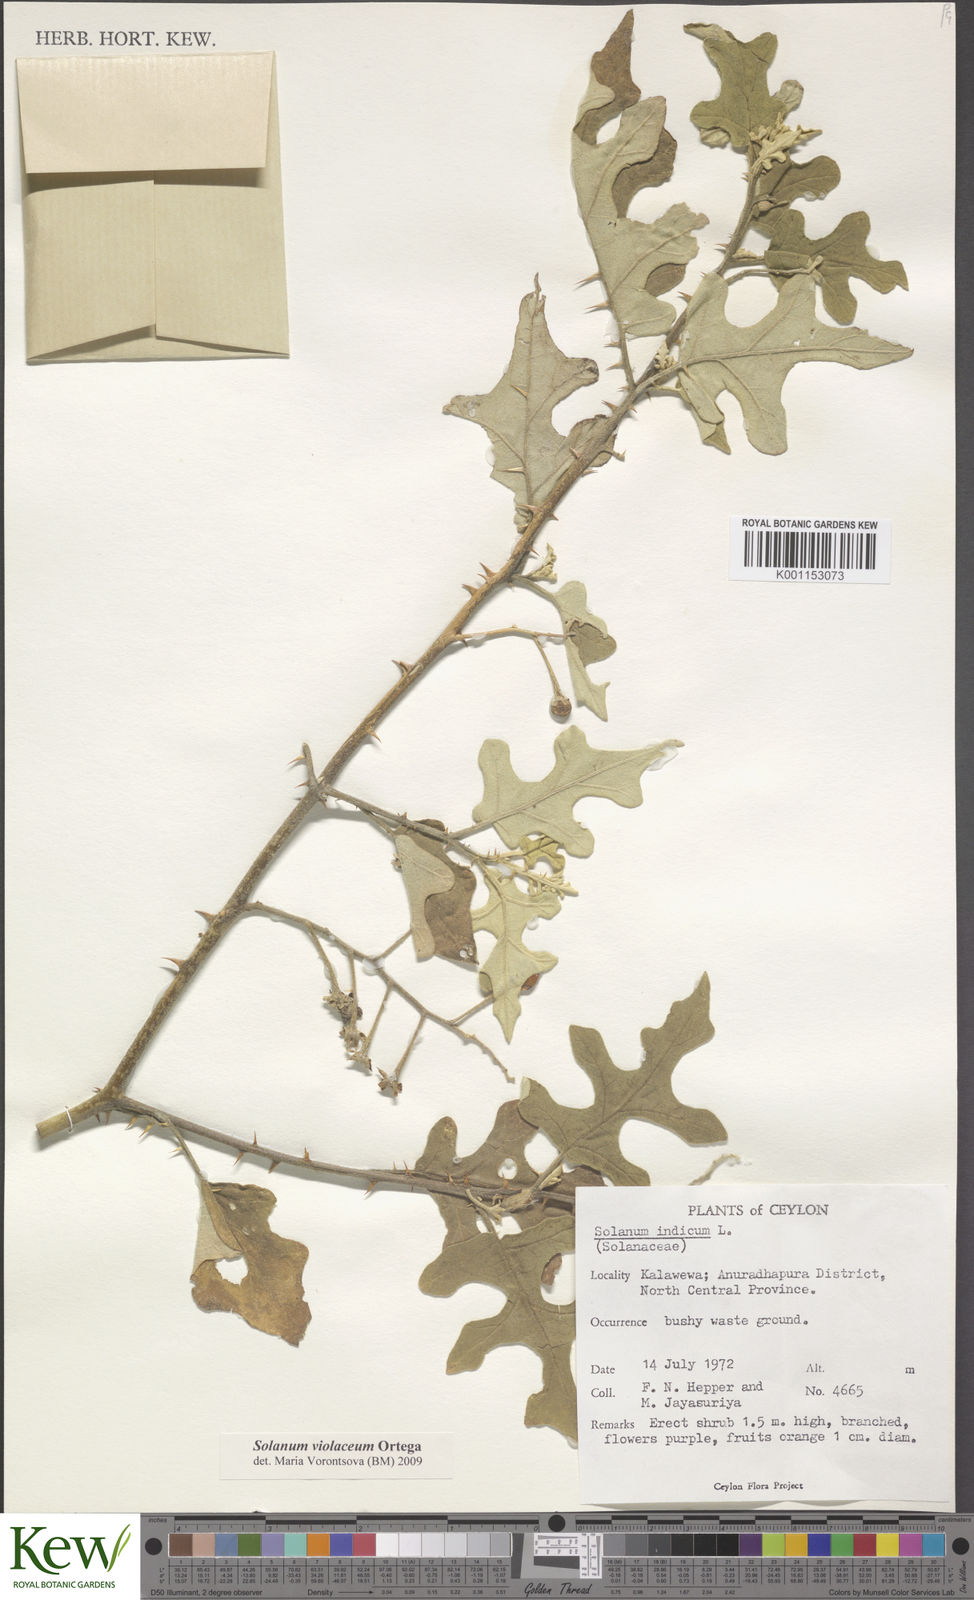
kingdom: Plantae
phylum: Tracheophyta
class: Magnoliopsida
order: Solanales
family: Solanaceae
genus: Solanum
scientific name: Solanum violaceum
